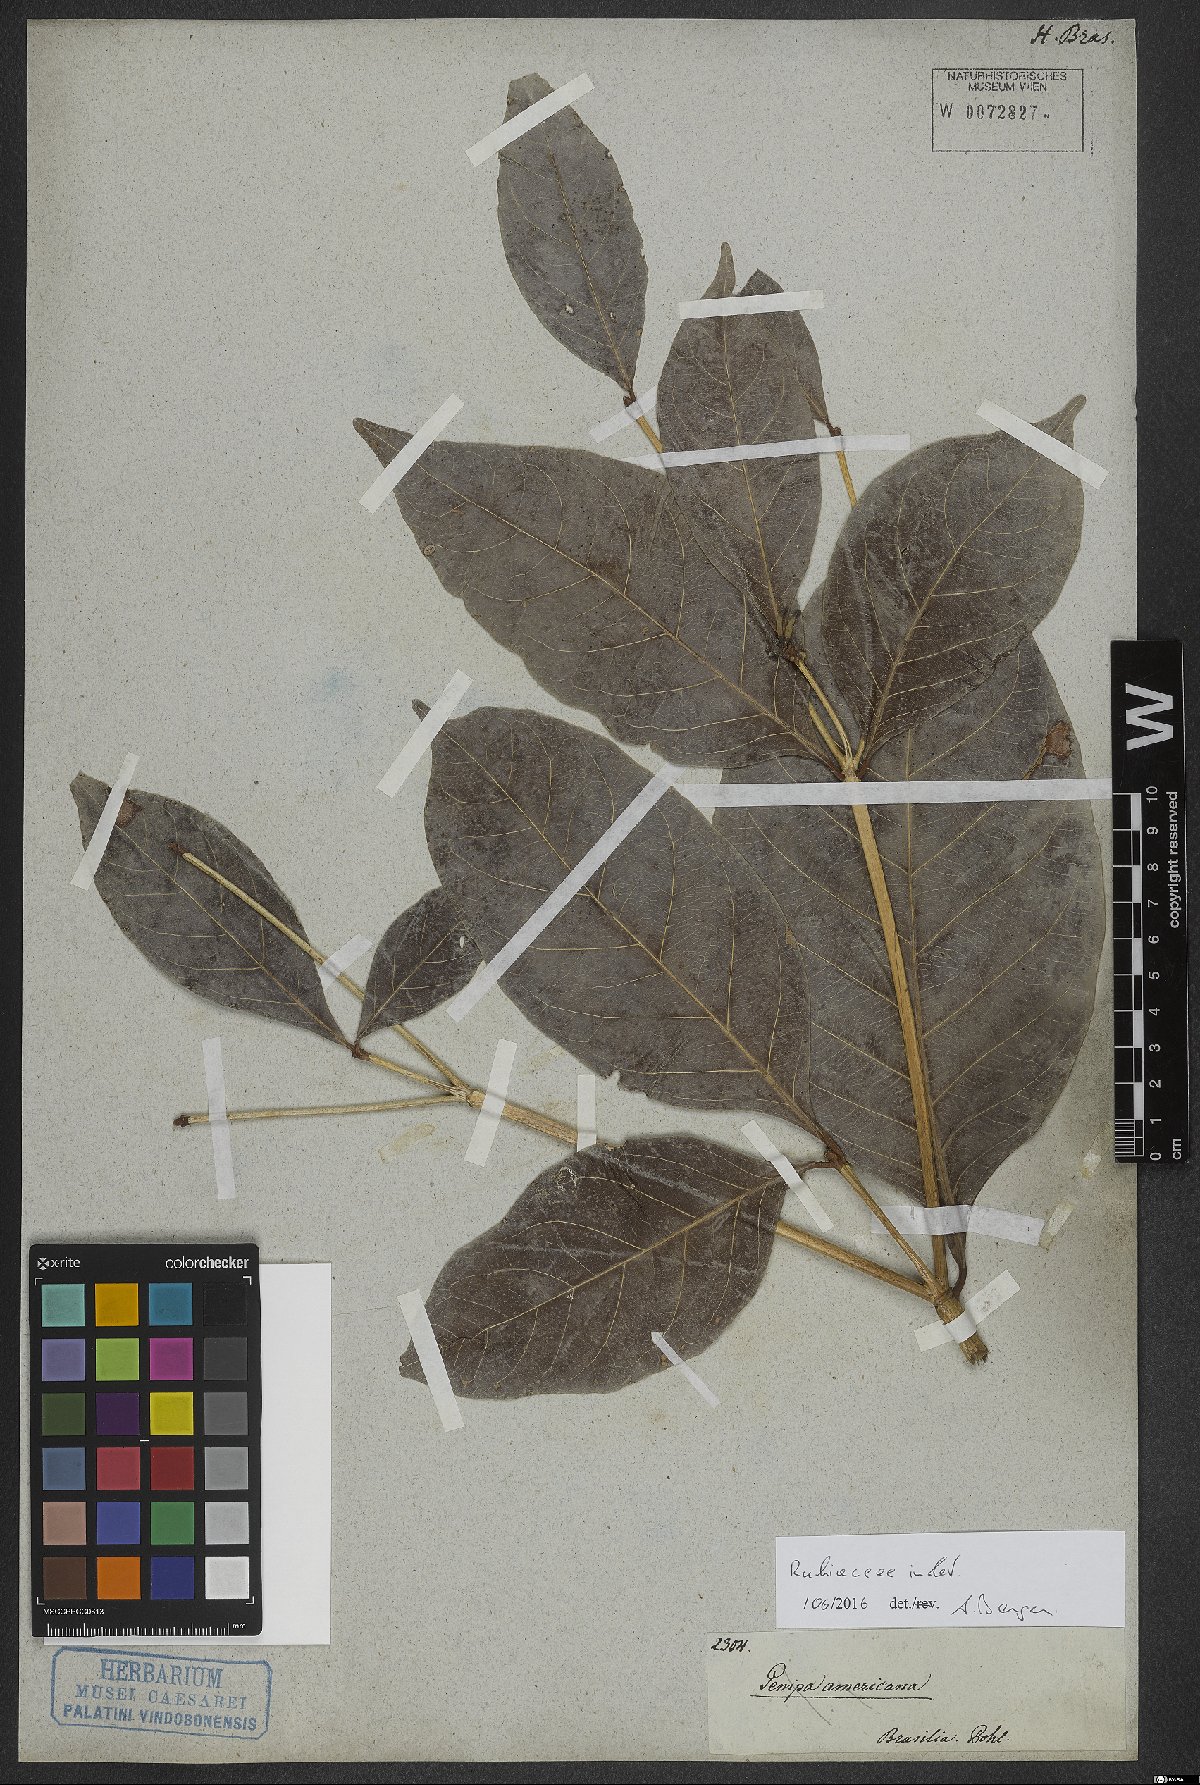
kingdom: Plantae
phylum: Tracheophyta
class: Magnoliopsida
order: Gentianales
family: Rubiaceae
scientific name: Rubiaceae
